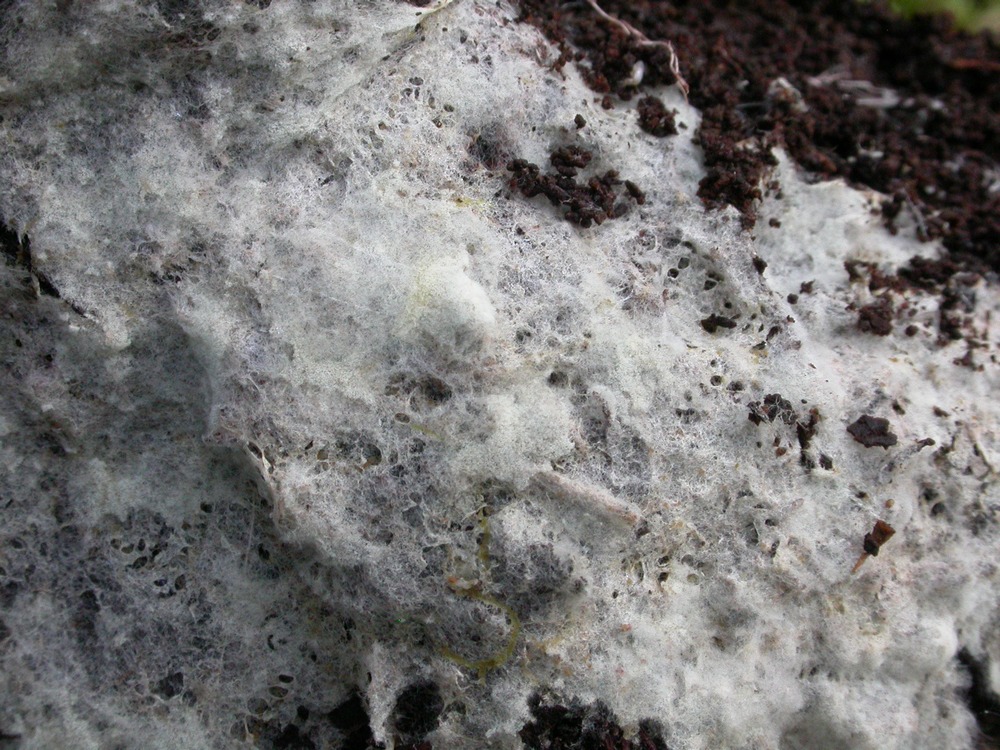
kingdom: Fungi
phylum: Basidiomycota
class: Agaricomycetes
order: Thelephorales
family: Thelephoraceae
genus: Tomentellopsis
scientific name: Tomentellopsis echinospora
